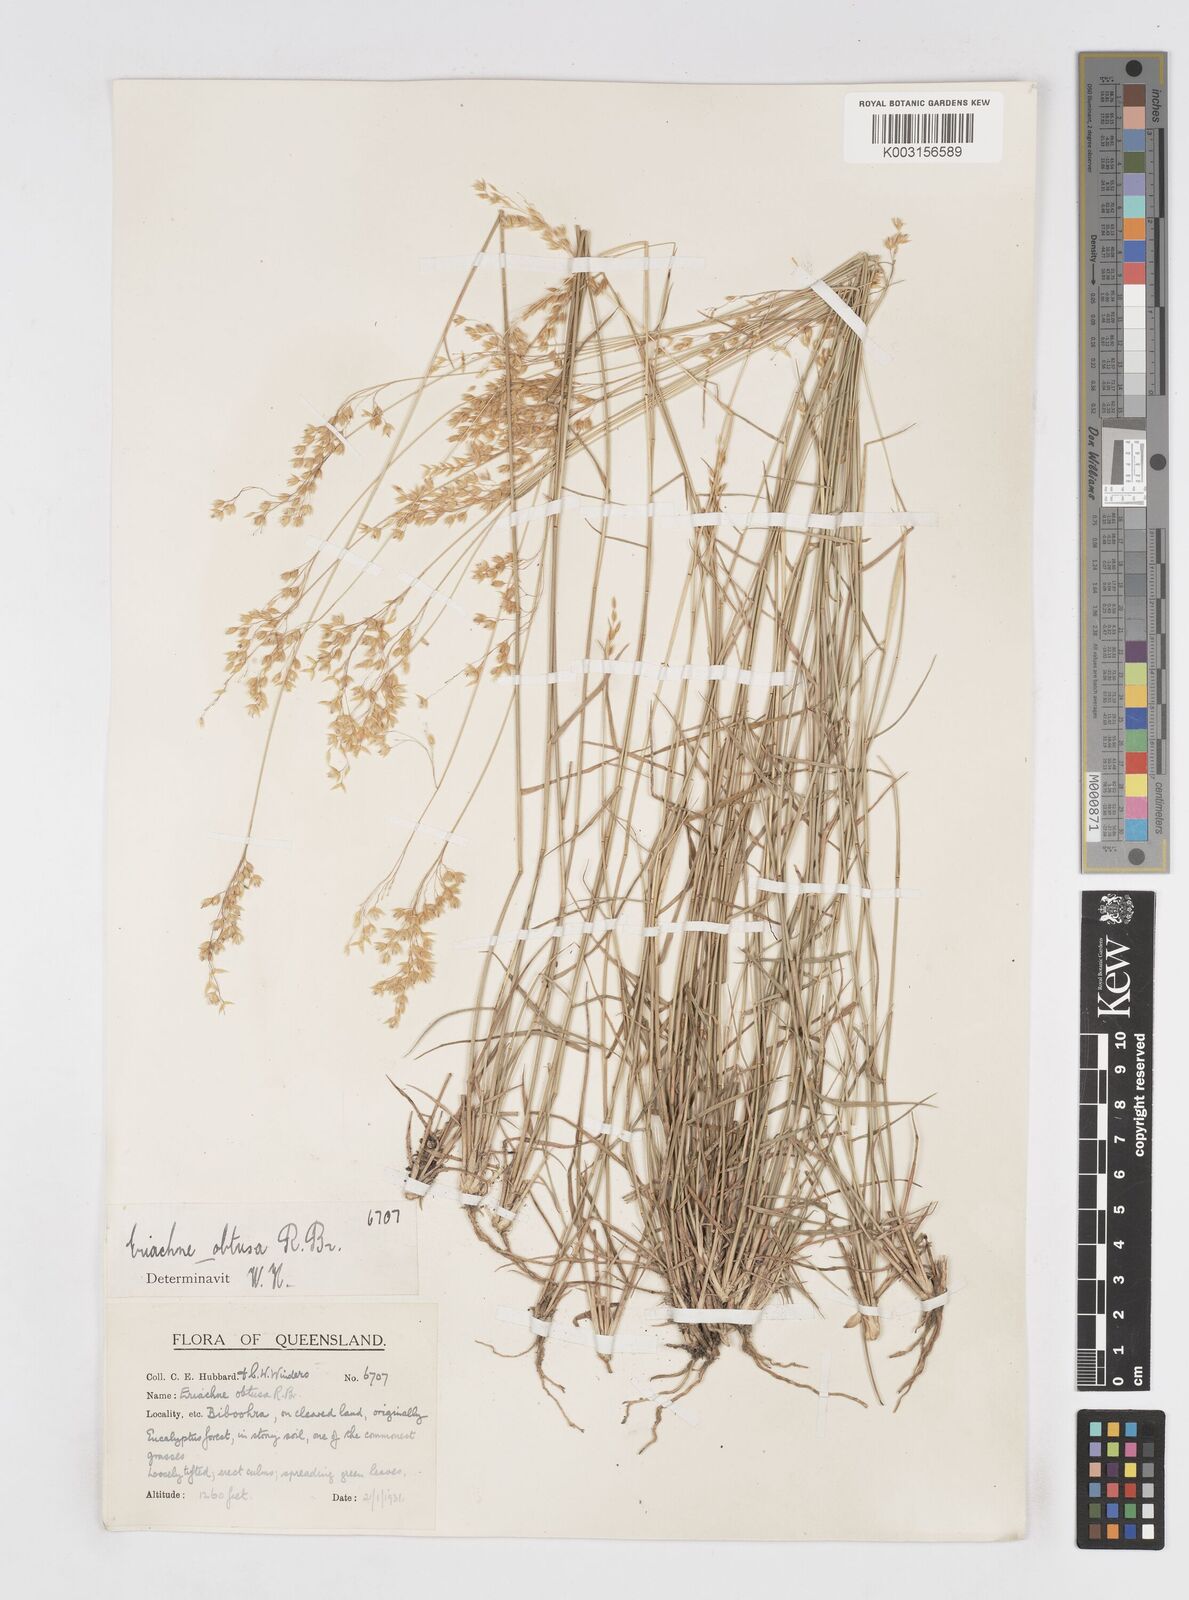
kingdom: Plantae
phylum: Tracheophyta
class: Liliopsida
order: Poales
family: Poaceae
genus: Eriachne
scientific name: Eriachne obtusa
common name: Northern wanderrie grass
